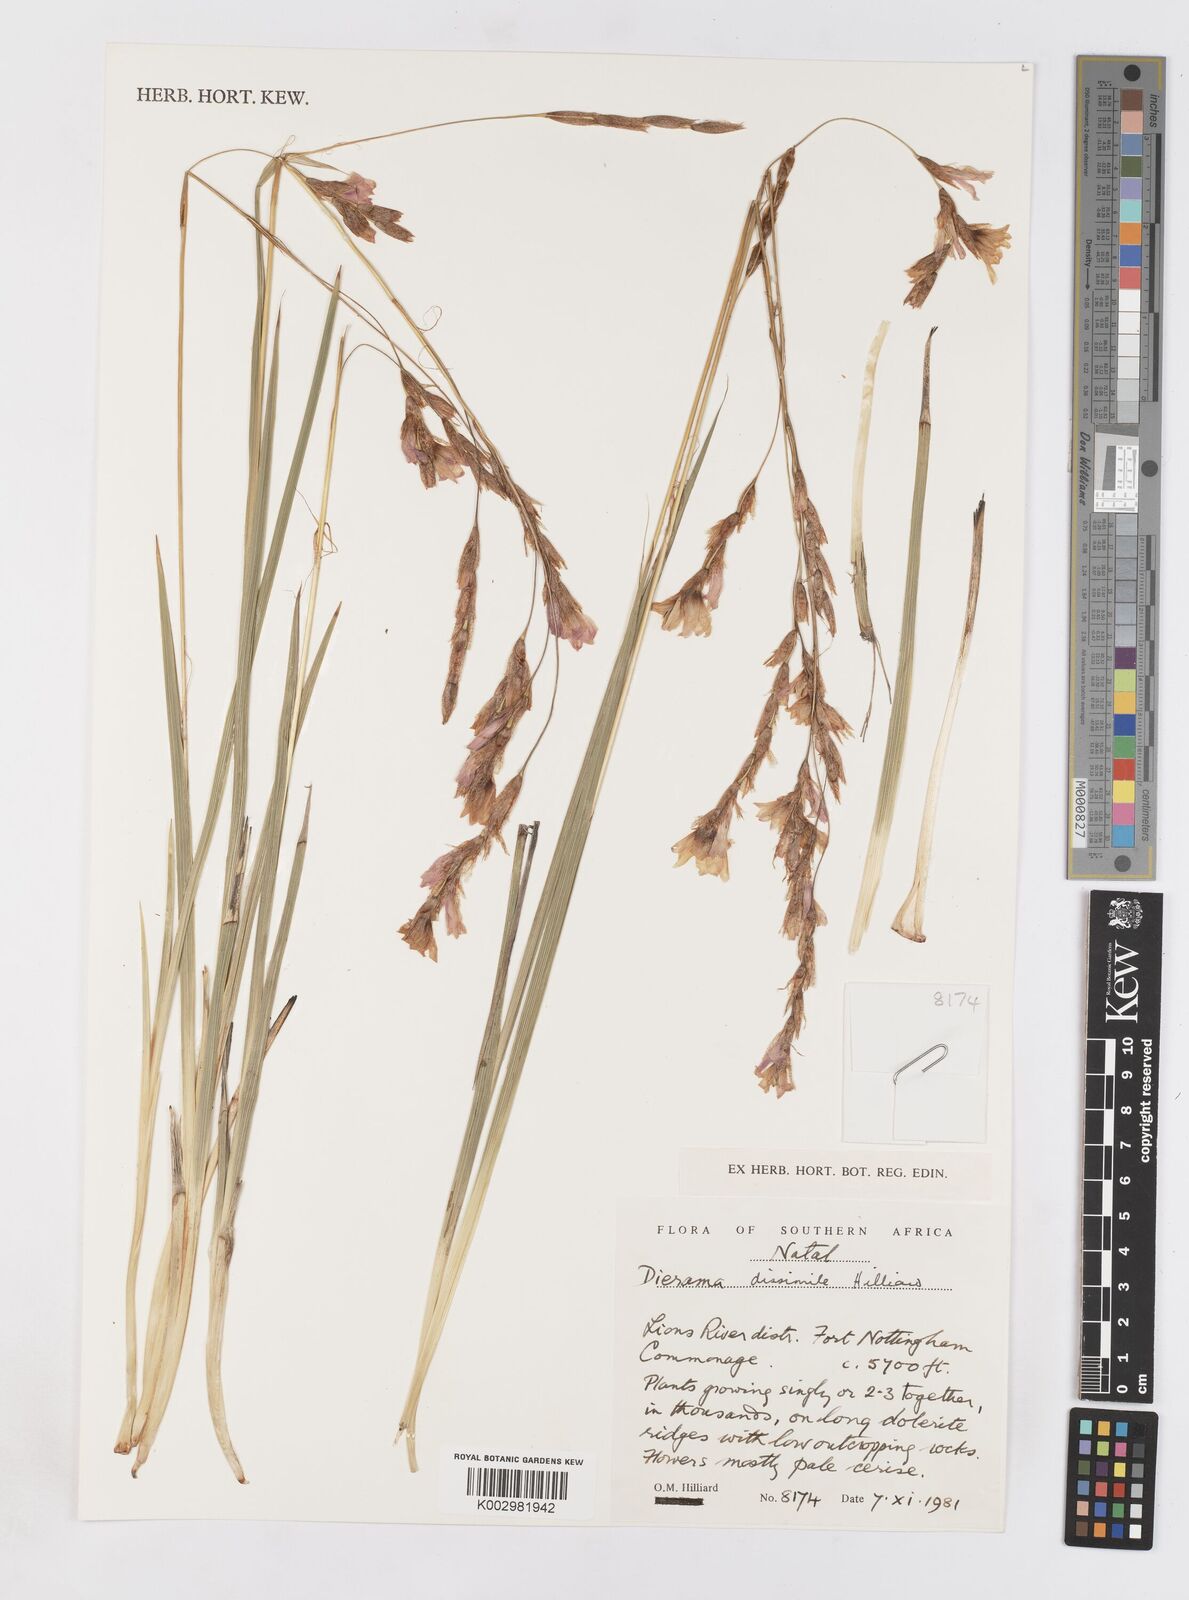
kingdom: Plantae
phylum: Tracheophyta
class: Liliopsida
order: Asparagales
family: Iridaceae
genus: Dierama
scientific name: Dierama dissimile
